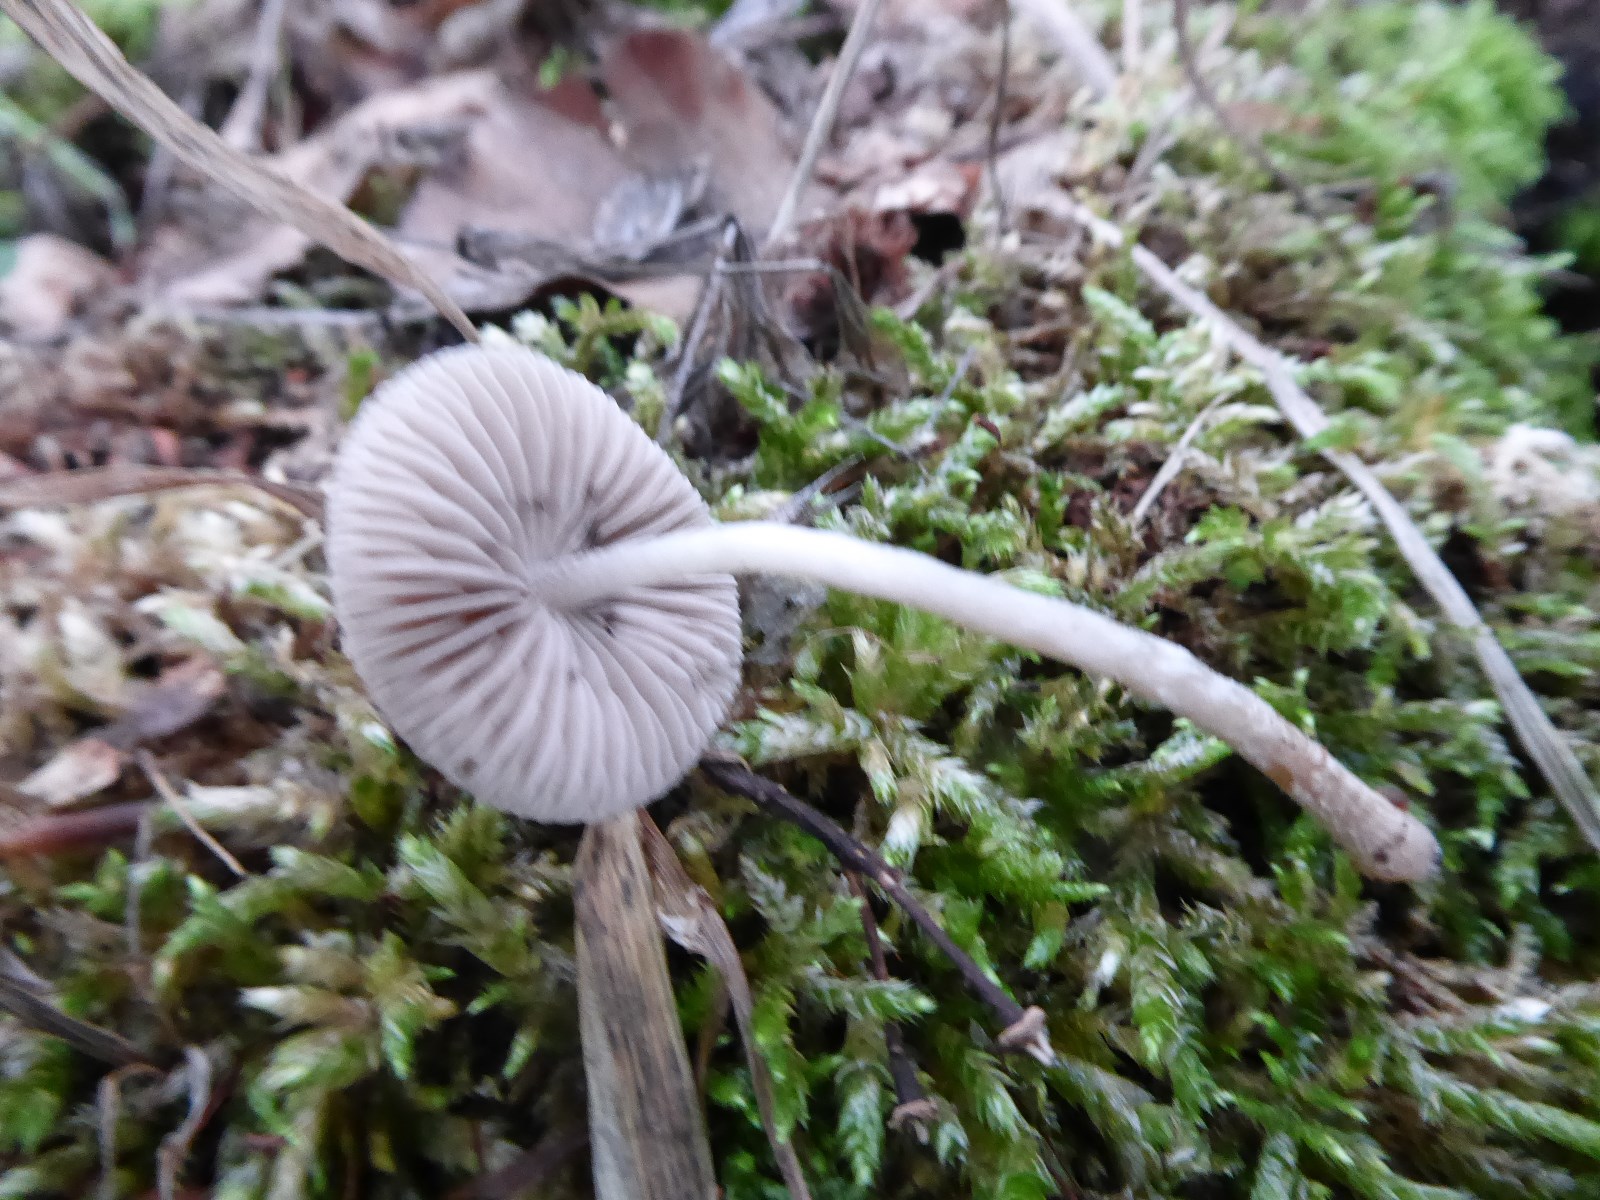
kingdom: Fungi
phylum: Basidiomycota
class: Agaricomycetes
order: Agaricales
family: Psathyrellaceae
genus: Psathyrella
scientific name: Psathyrella
